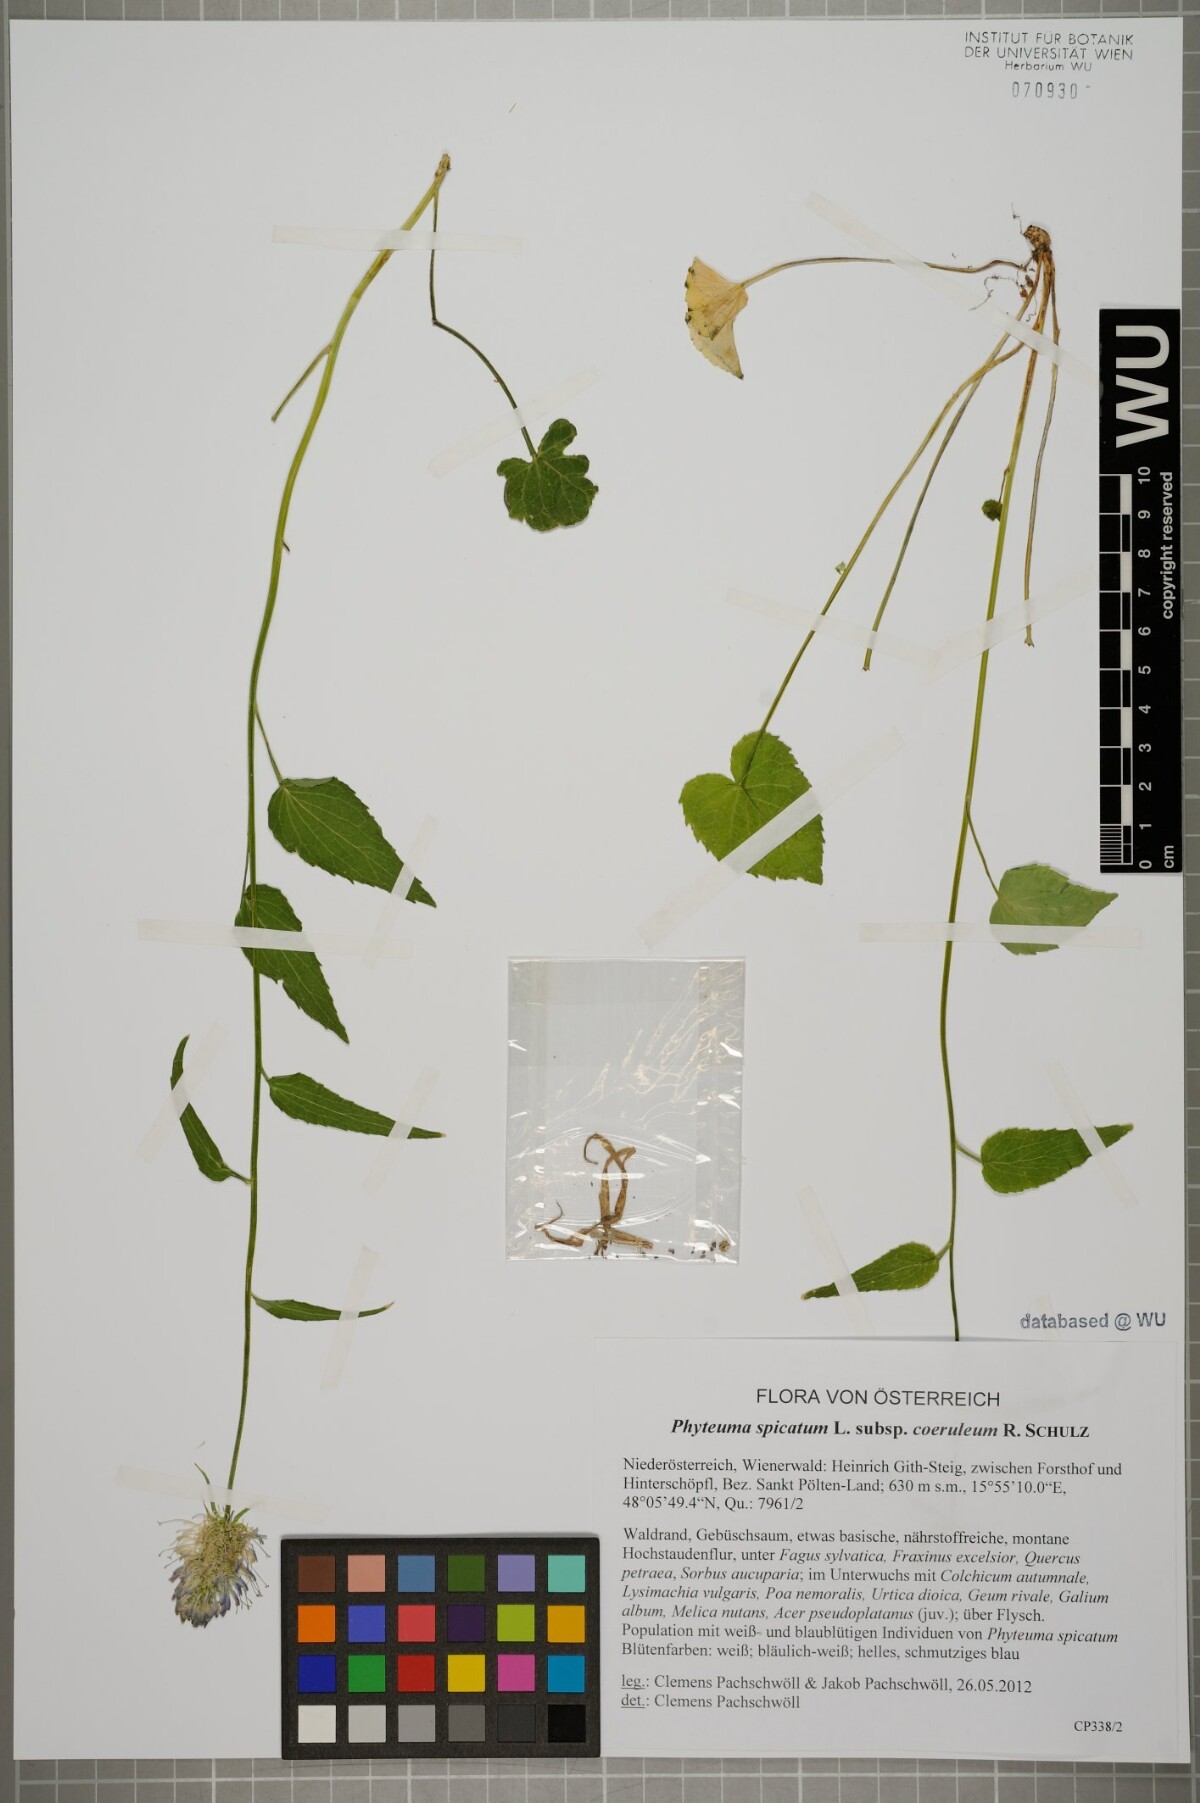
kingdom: Plantae
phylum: Tracheophyta
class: Magnoliopsida
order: Asterales
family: Campanulaceae
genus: Phyteuma
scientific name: Phyteuma spicatum
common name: Spiked rampion
